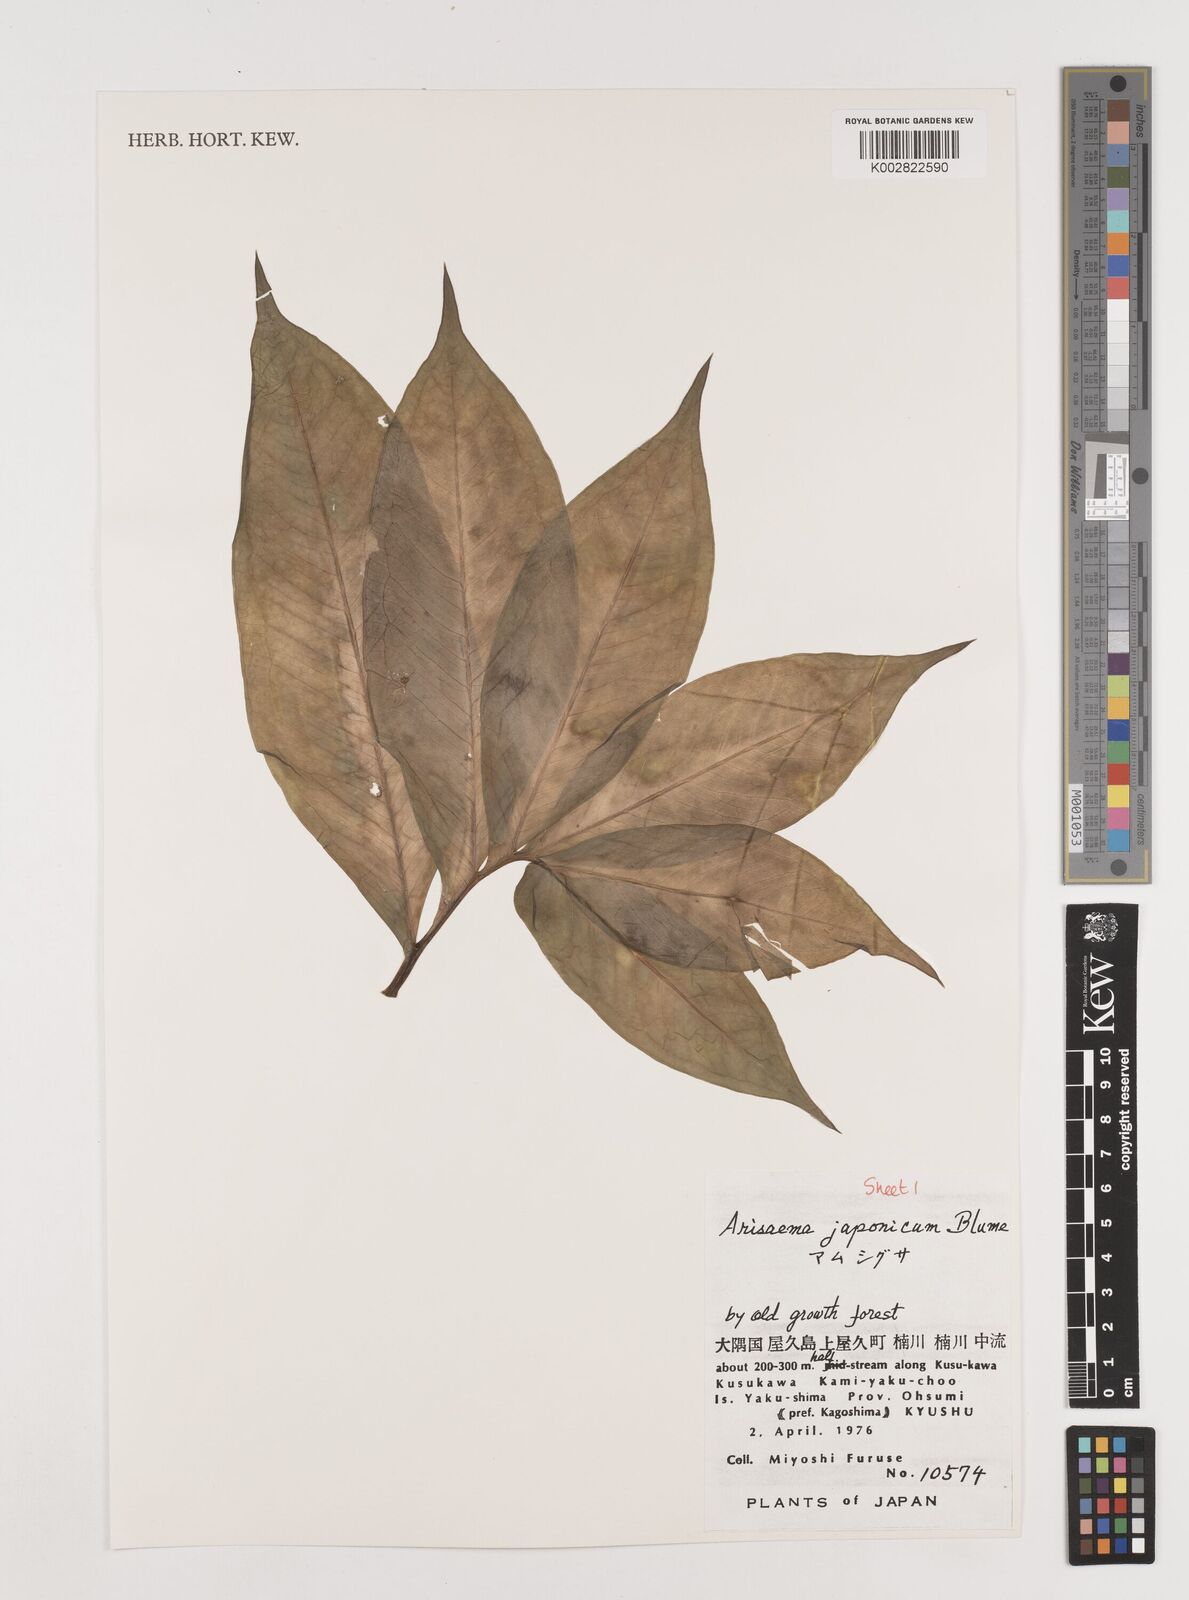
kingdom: Plantae
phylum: Tracheophyta
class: Liliopsida
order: Alismatales
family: Araceae
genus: Arisaema
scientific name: Arisaema serratum
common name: Japanese arisaema
